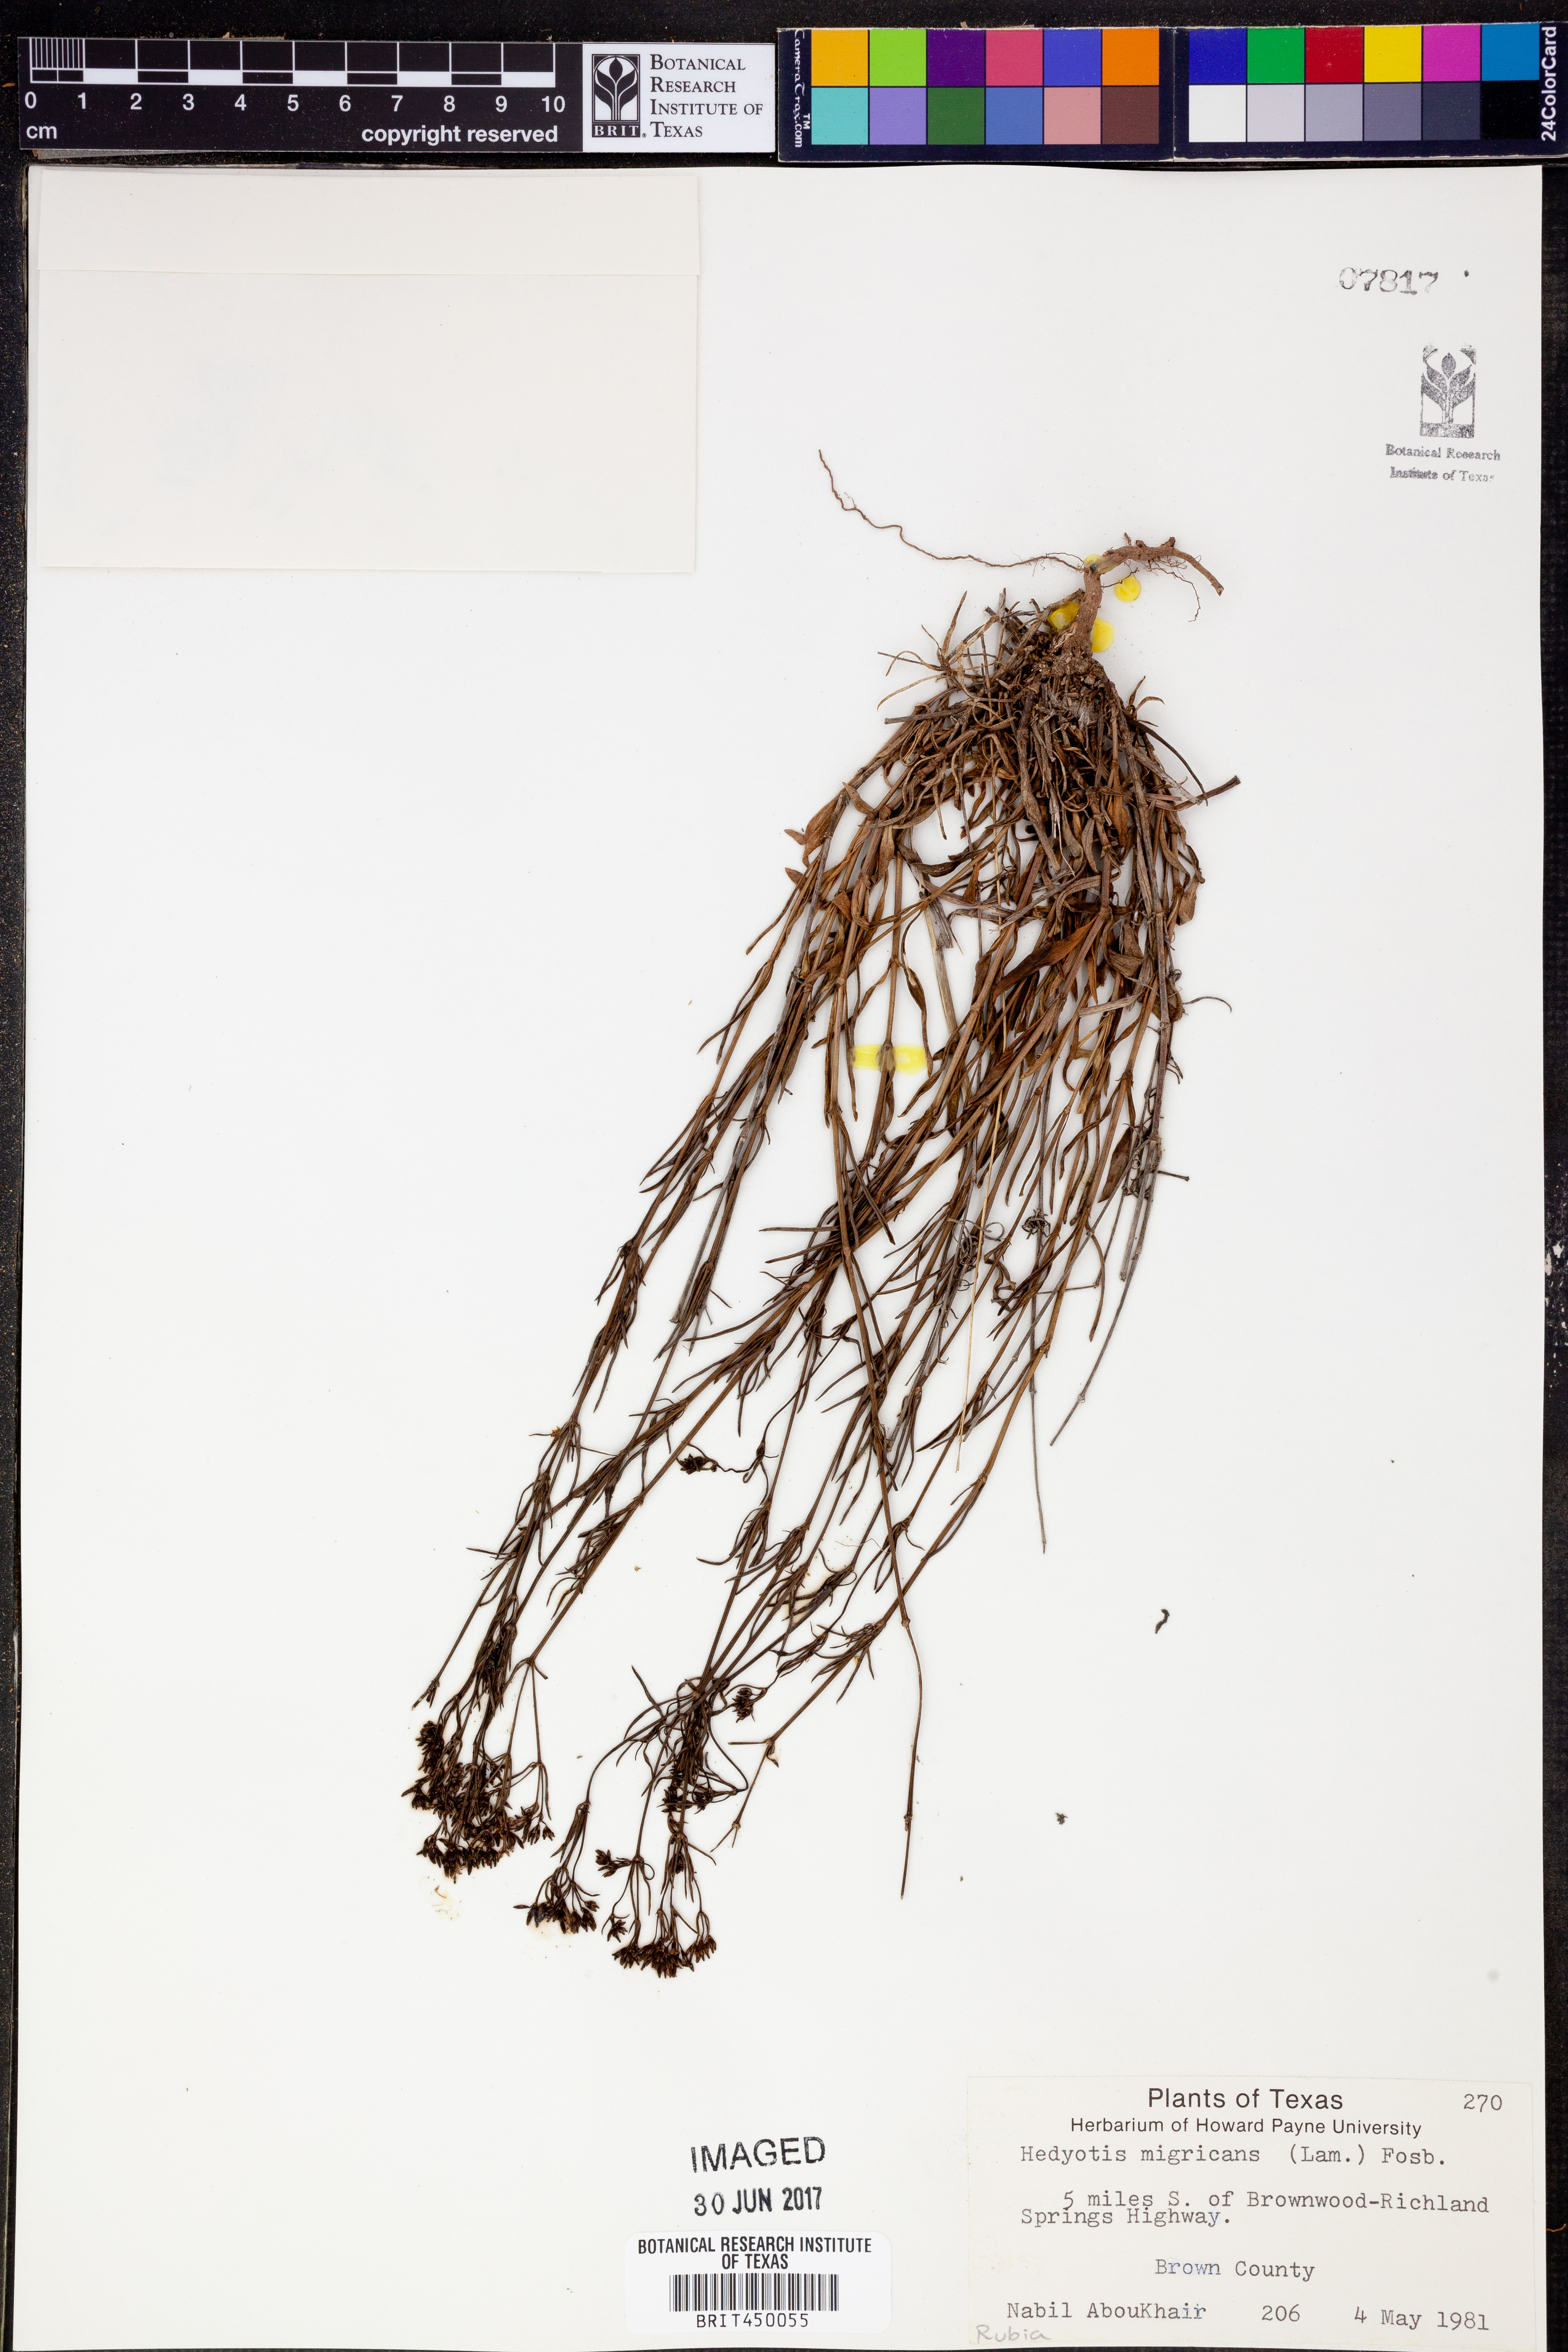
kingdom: Plantae
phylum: Tracheophyta
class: Magnoliopsida
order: Gentianales
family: Rubiaceae
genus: Stenaria
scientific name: Stenaria nigricans
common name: Diamondflowers
